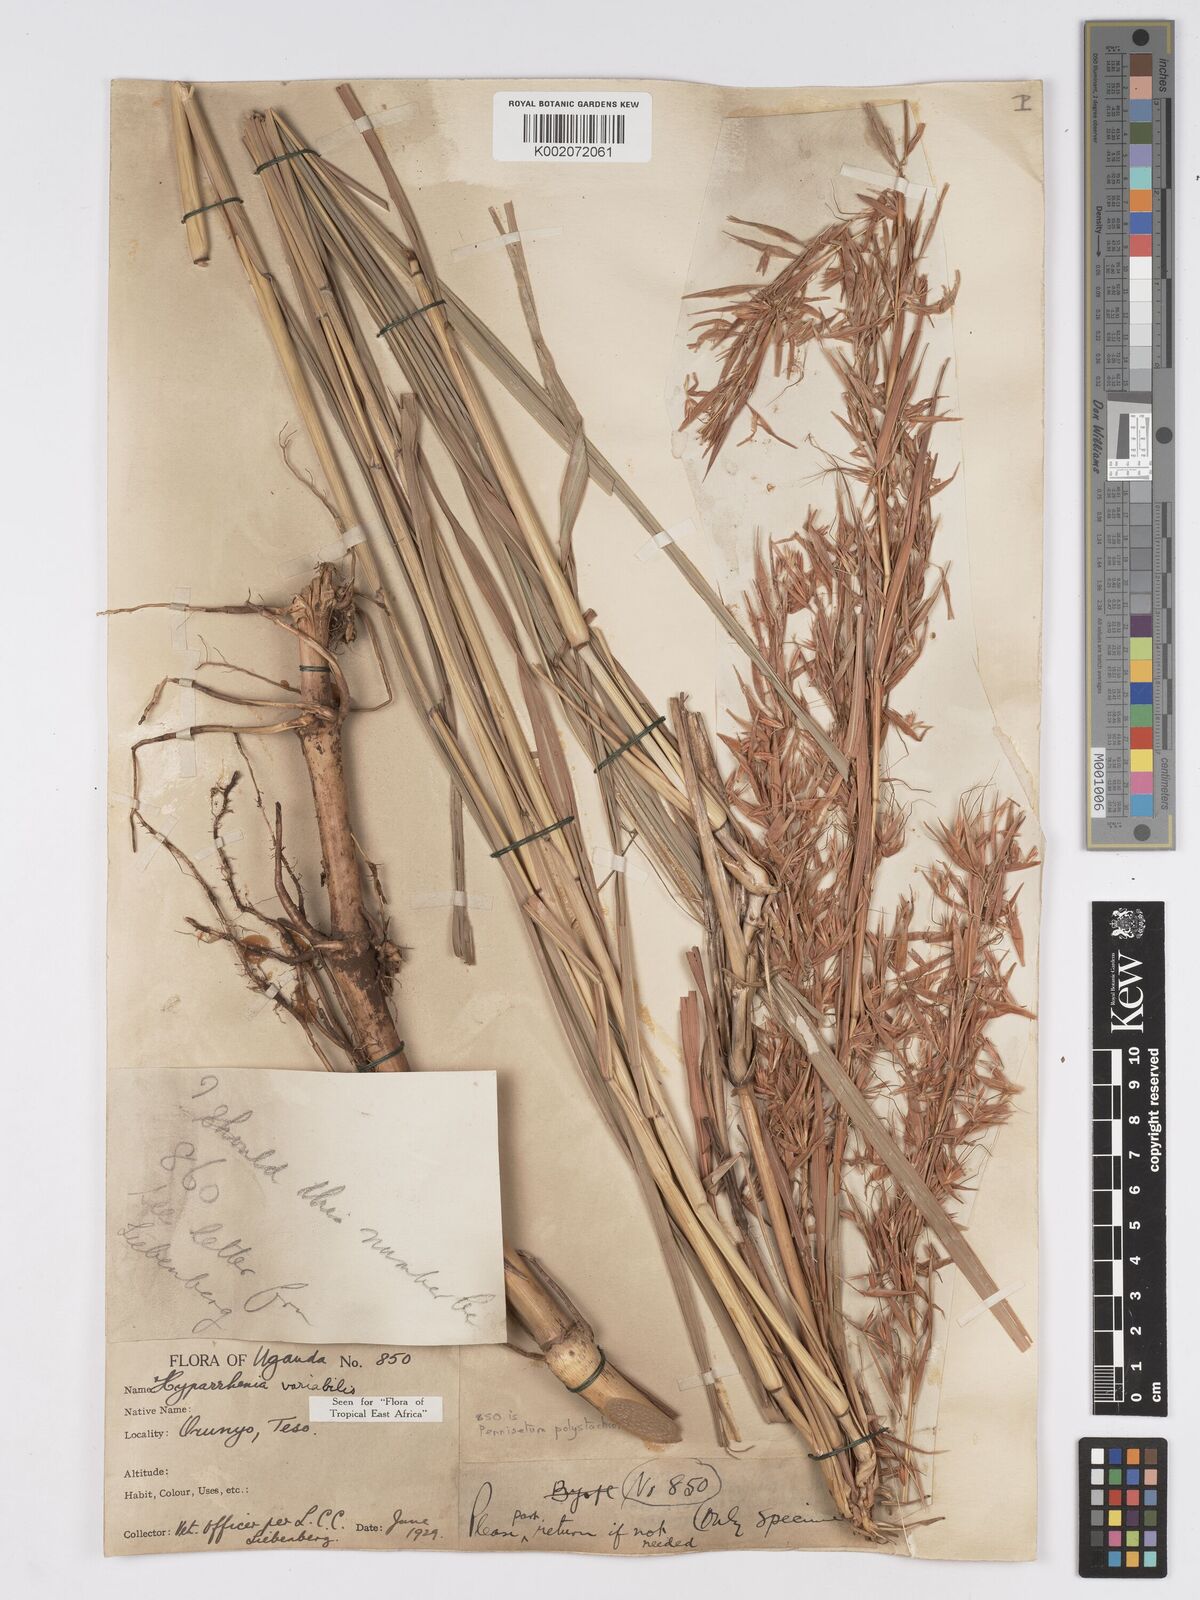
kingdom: Plantae
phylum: Tracheophyta
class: Liliopsida
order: Poales
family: Poaceae
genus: Hyparrhenia
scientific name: Hyparrhenia variabilis
